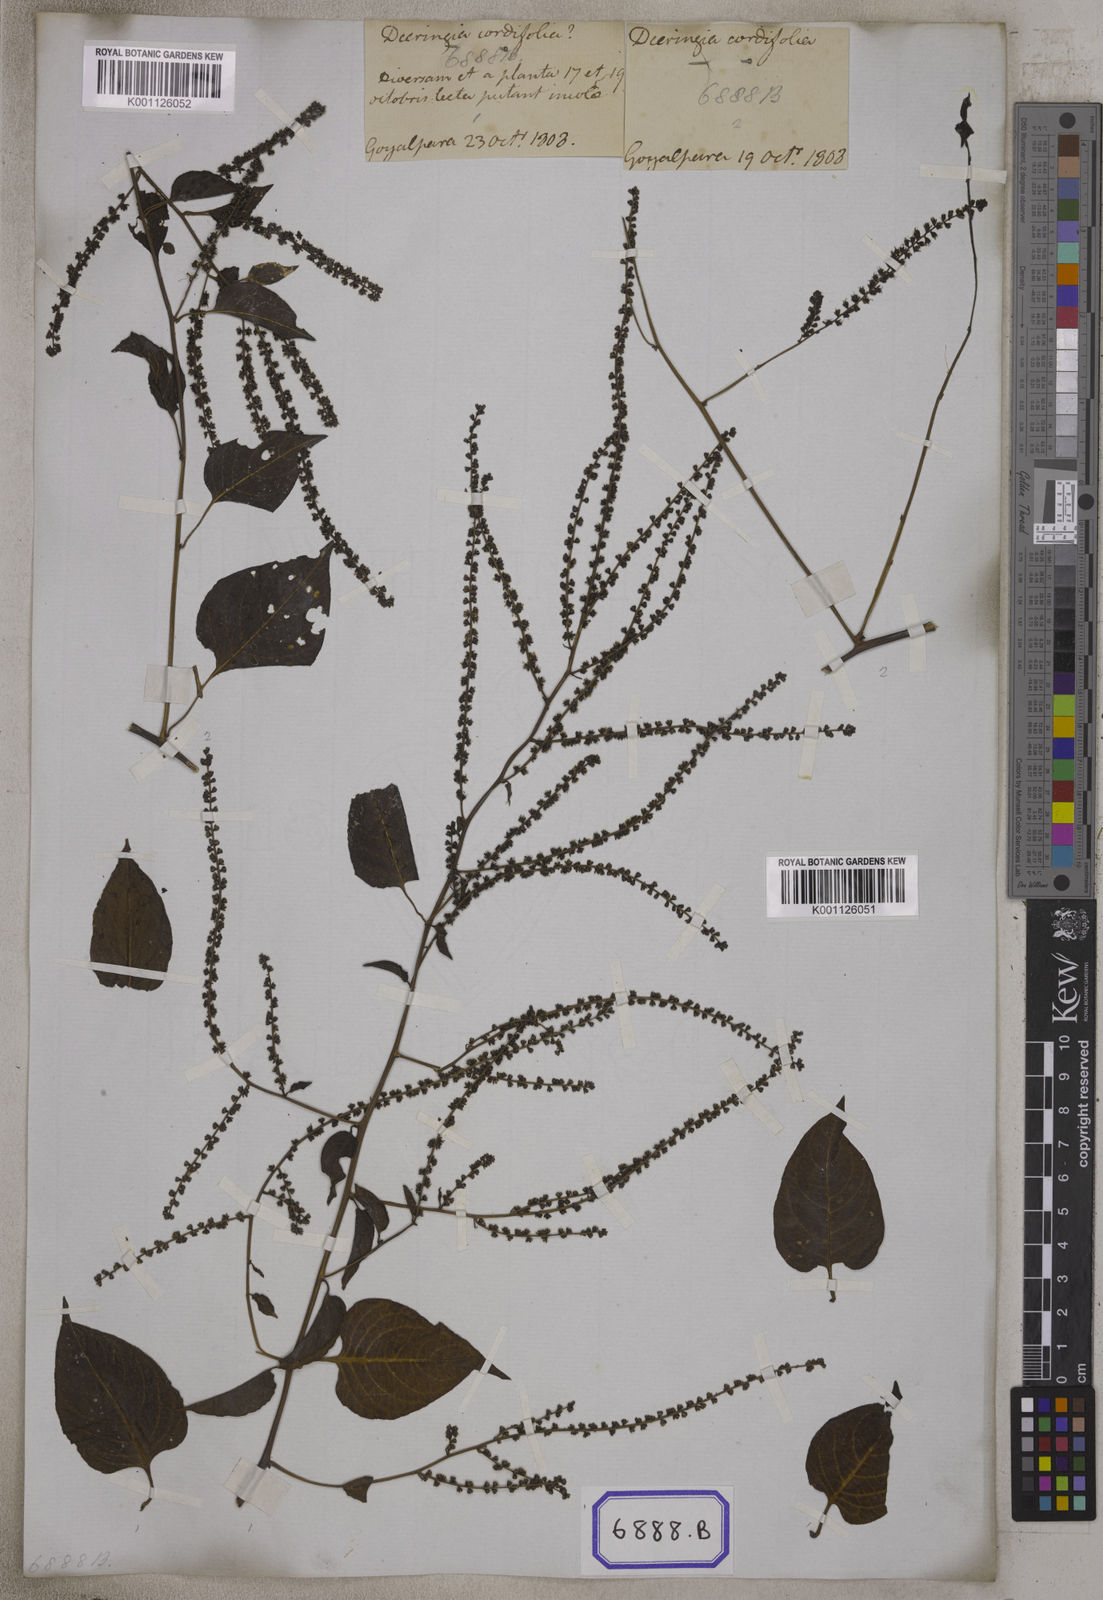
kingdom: Plantae
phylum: Tracheophyta
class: Magnoliopsida
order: Caryophyllales
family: Amaranthaceae
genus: Deeringia
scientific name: Deeringia amaranthoides
